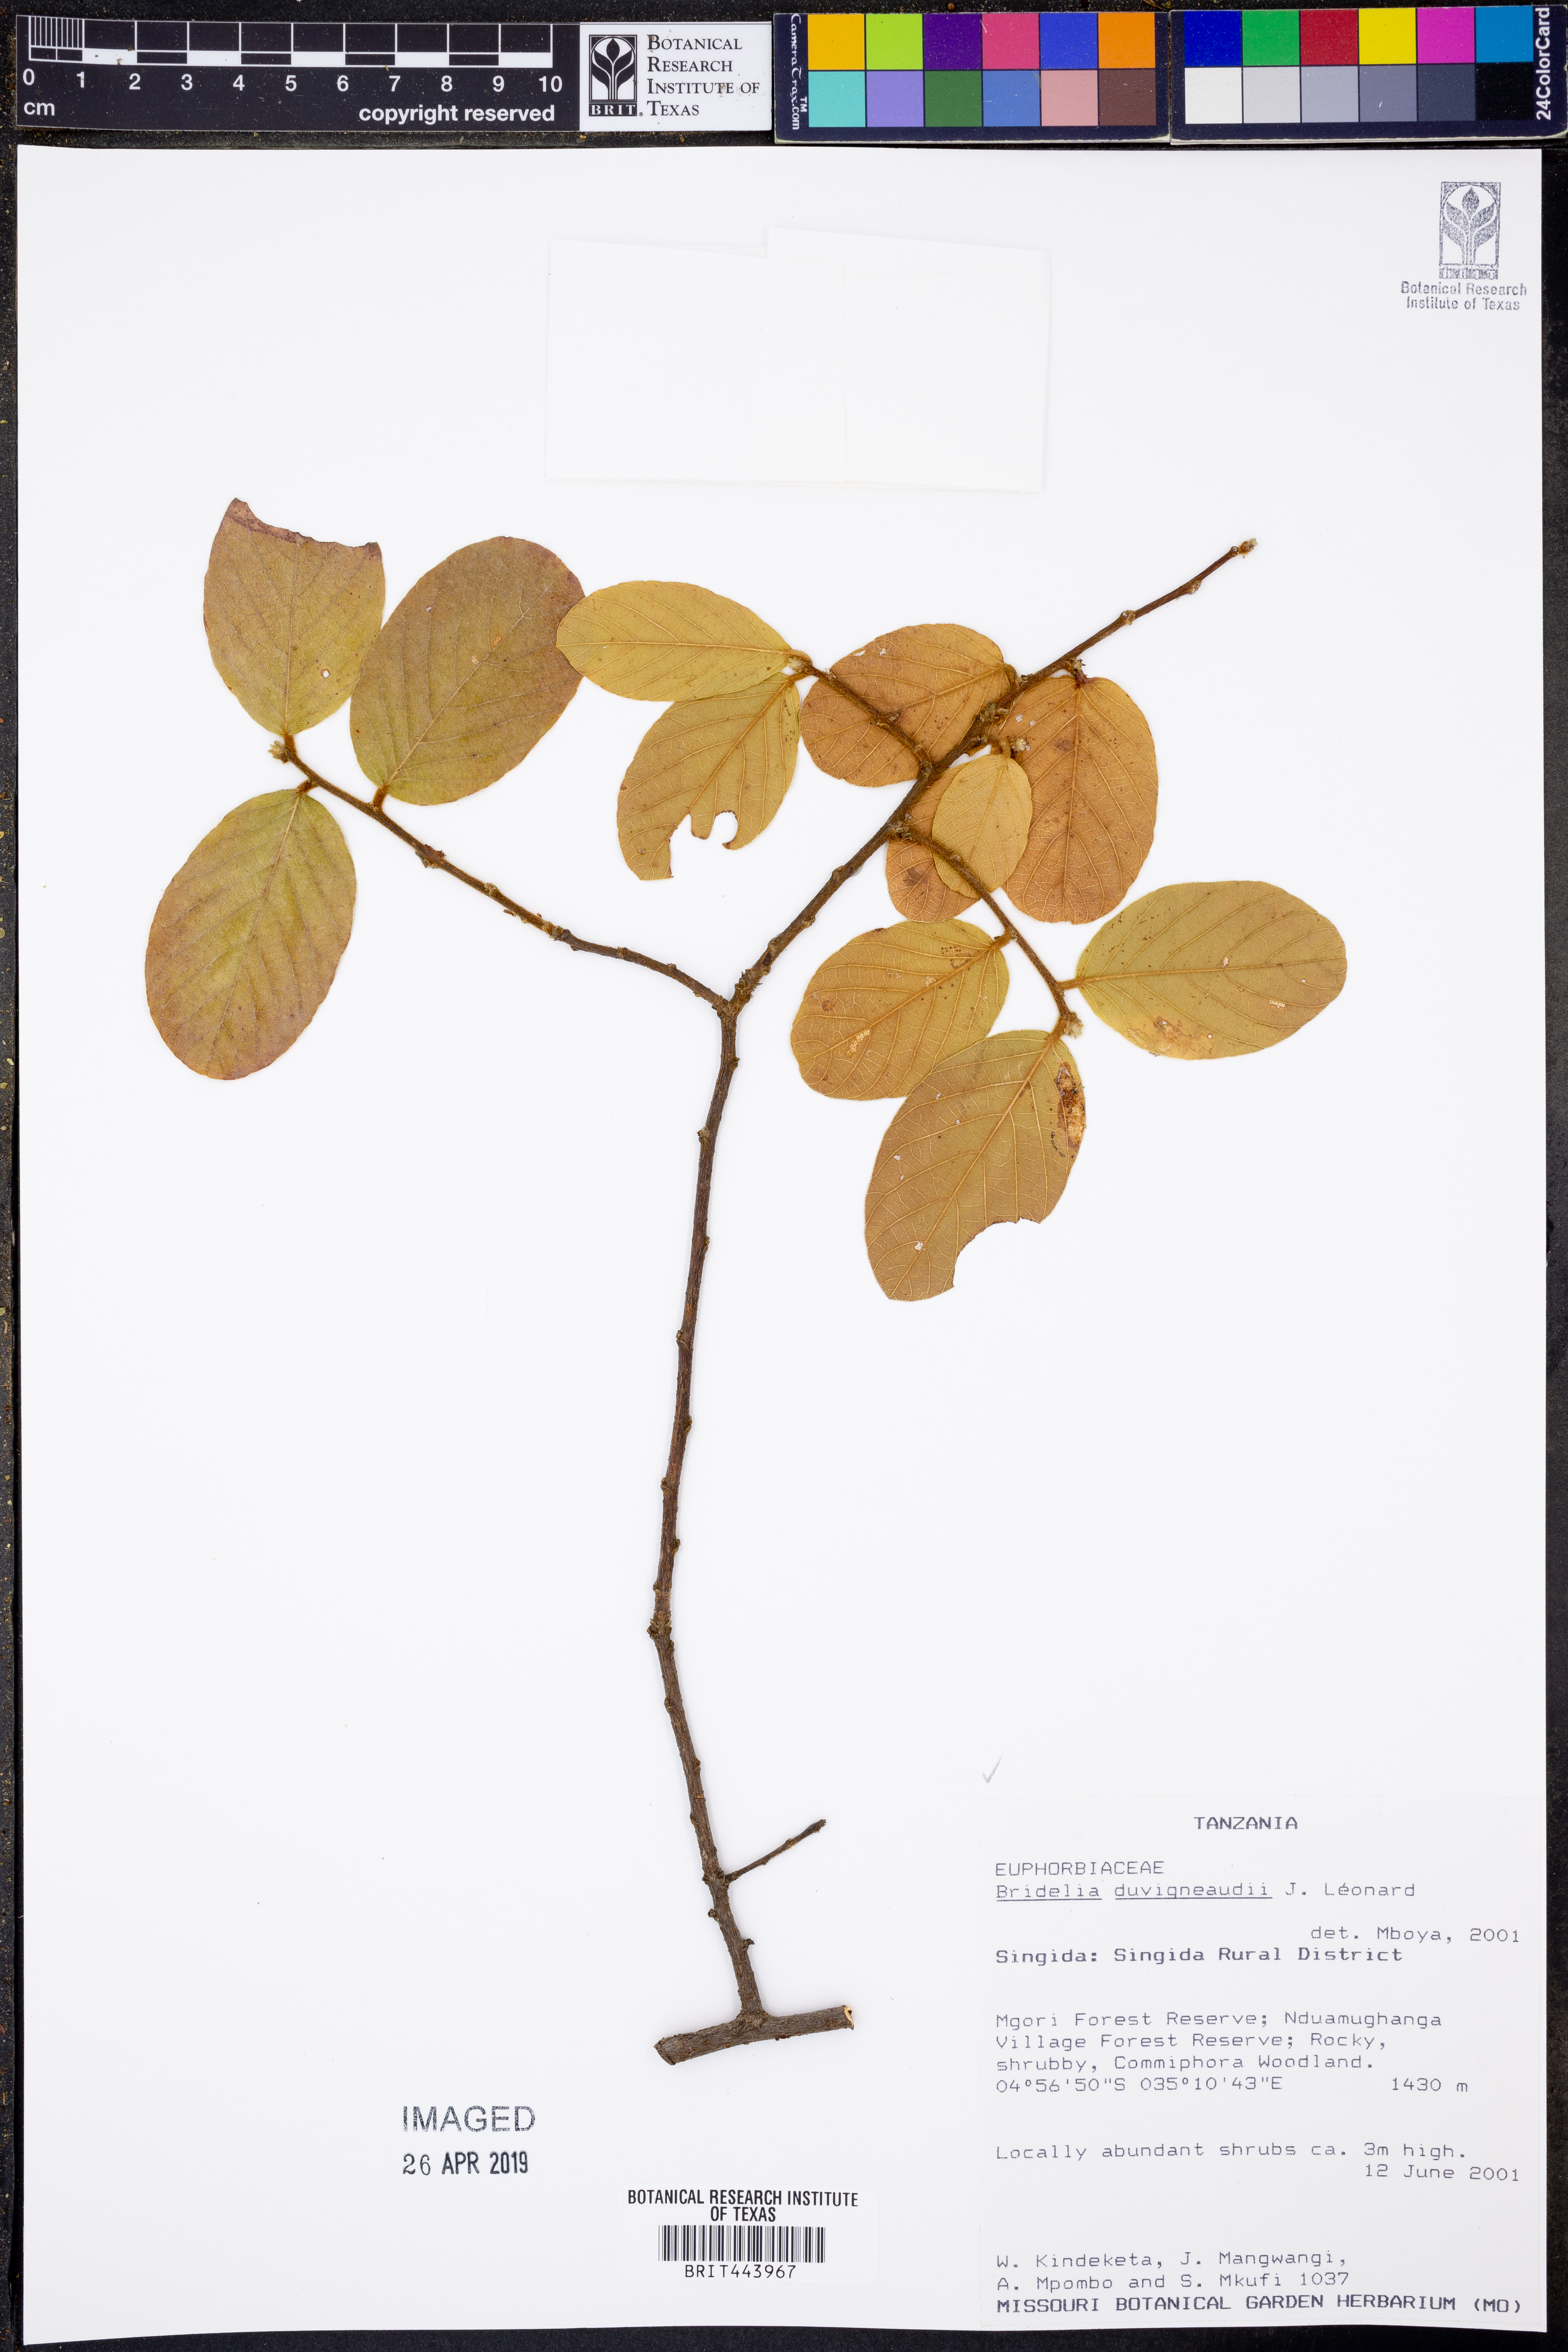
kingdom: Plantae
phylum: Tracheophyta
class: Magnoliopsida
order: Malpighiales
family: Phyllanthaceae
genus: Bridelia
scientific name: Bridelia duvigneaudii
